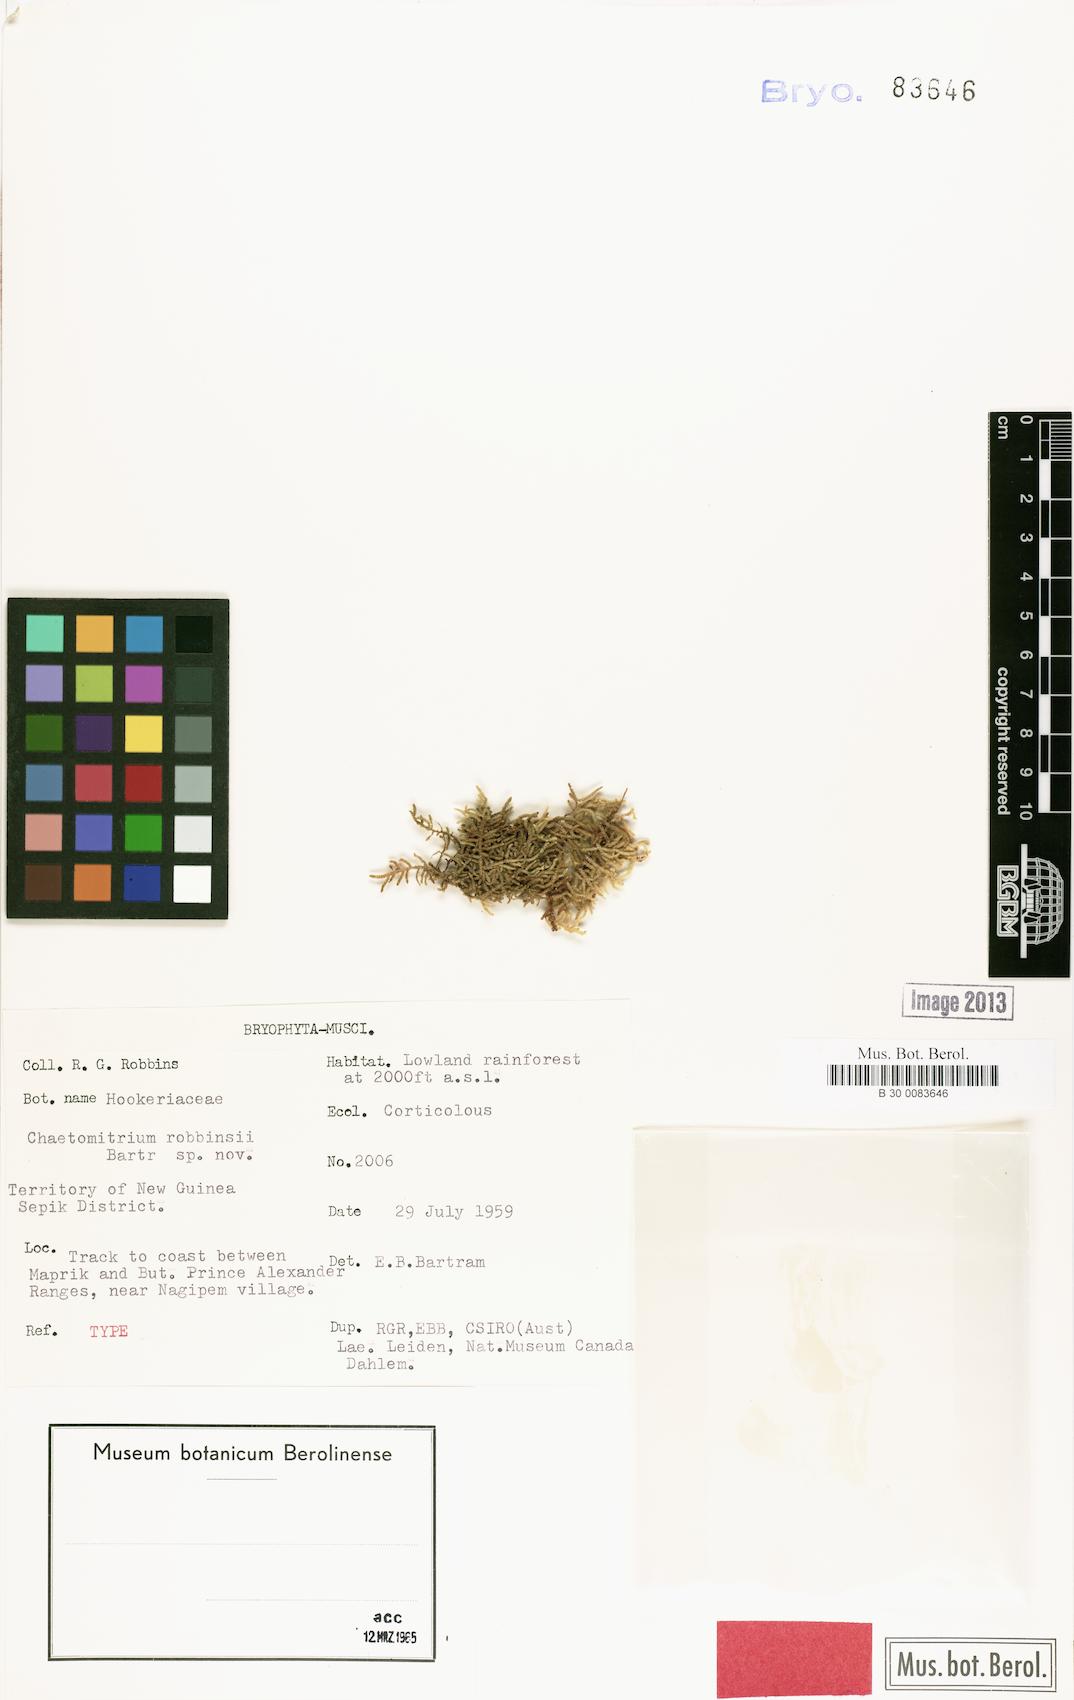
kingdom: Plantae
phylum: Bryophyta
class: Bryopsida
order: Hypnales
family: Symphyodontaceae
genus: Chaetomitrium
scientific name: Chaetomitrium robbinsii
